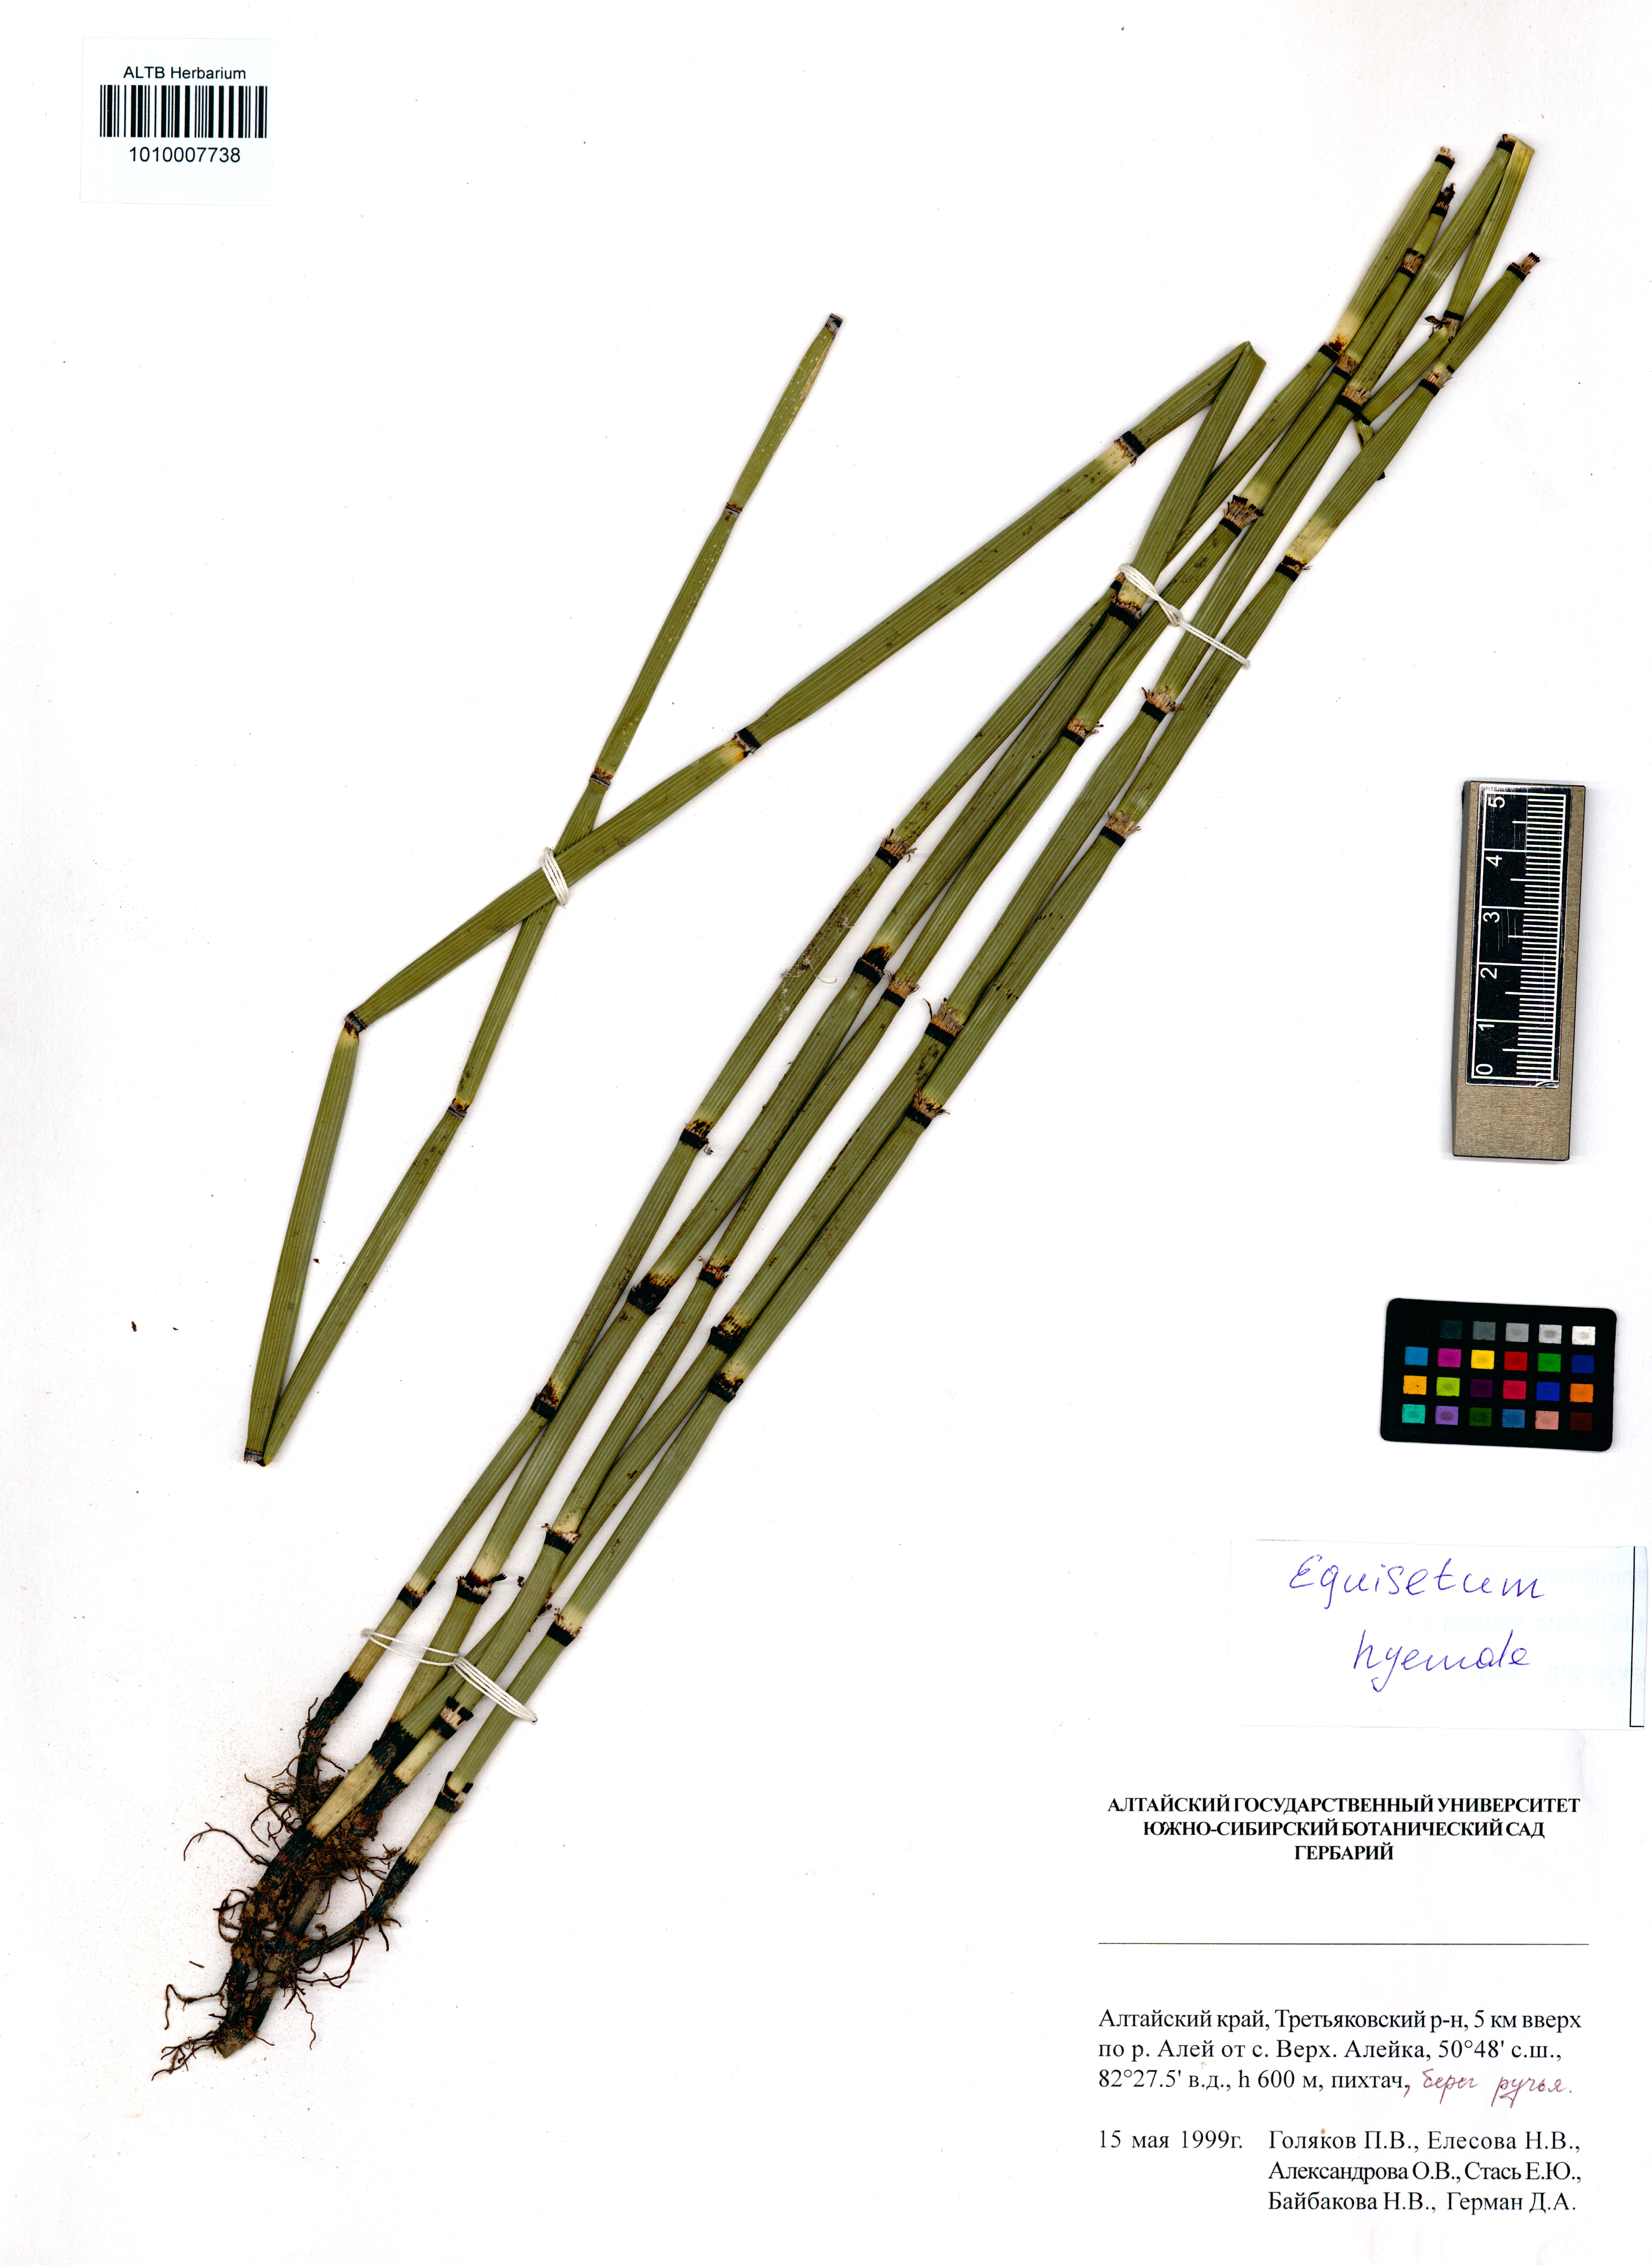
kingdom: Plantae
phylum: Tracheophyta
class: Polypodiopsida
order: Equisetales
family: Equisetaceae
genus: Equisetum
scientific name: Equisetum hyemale
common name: Rough horsetail
